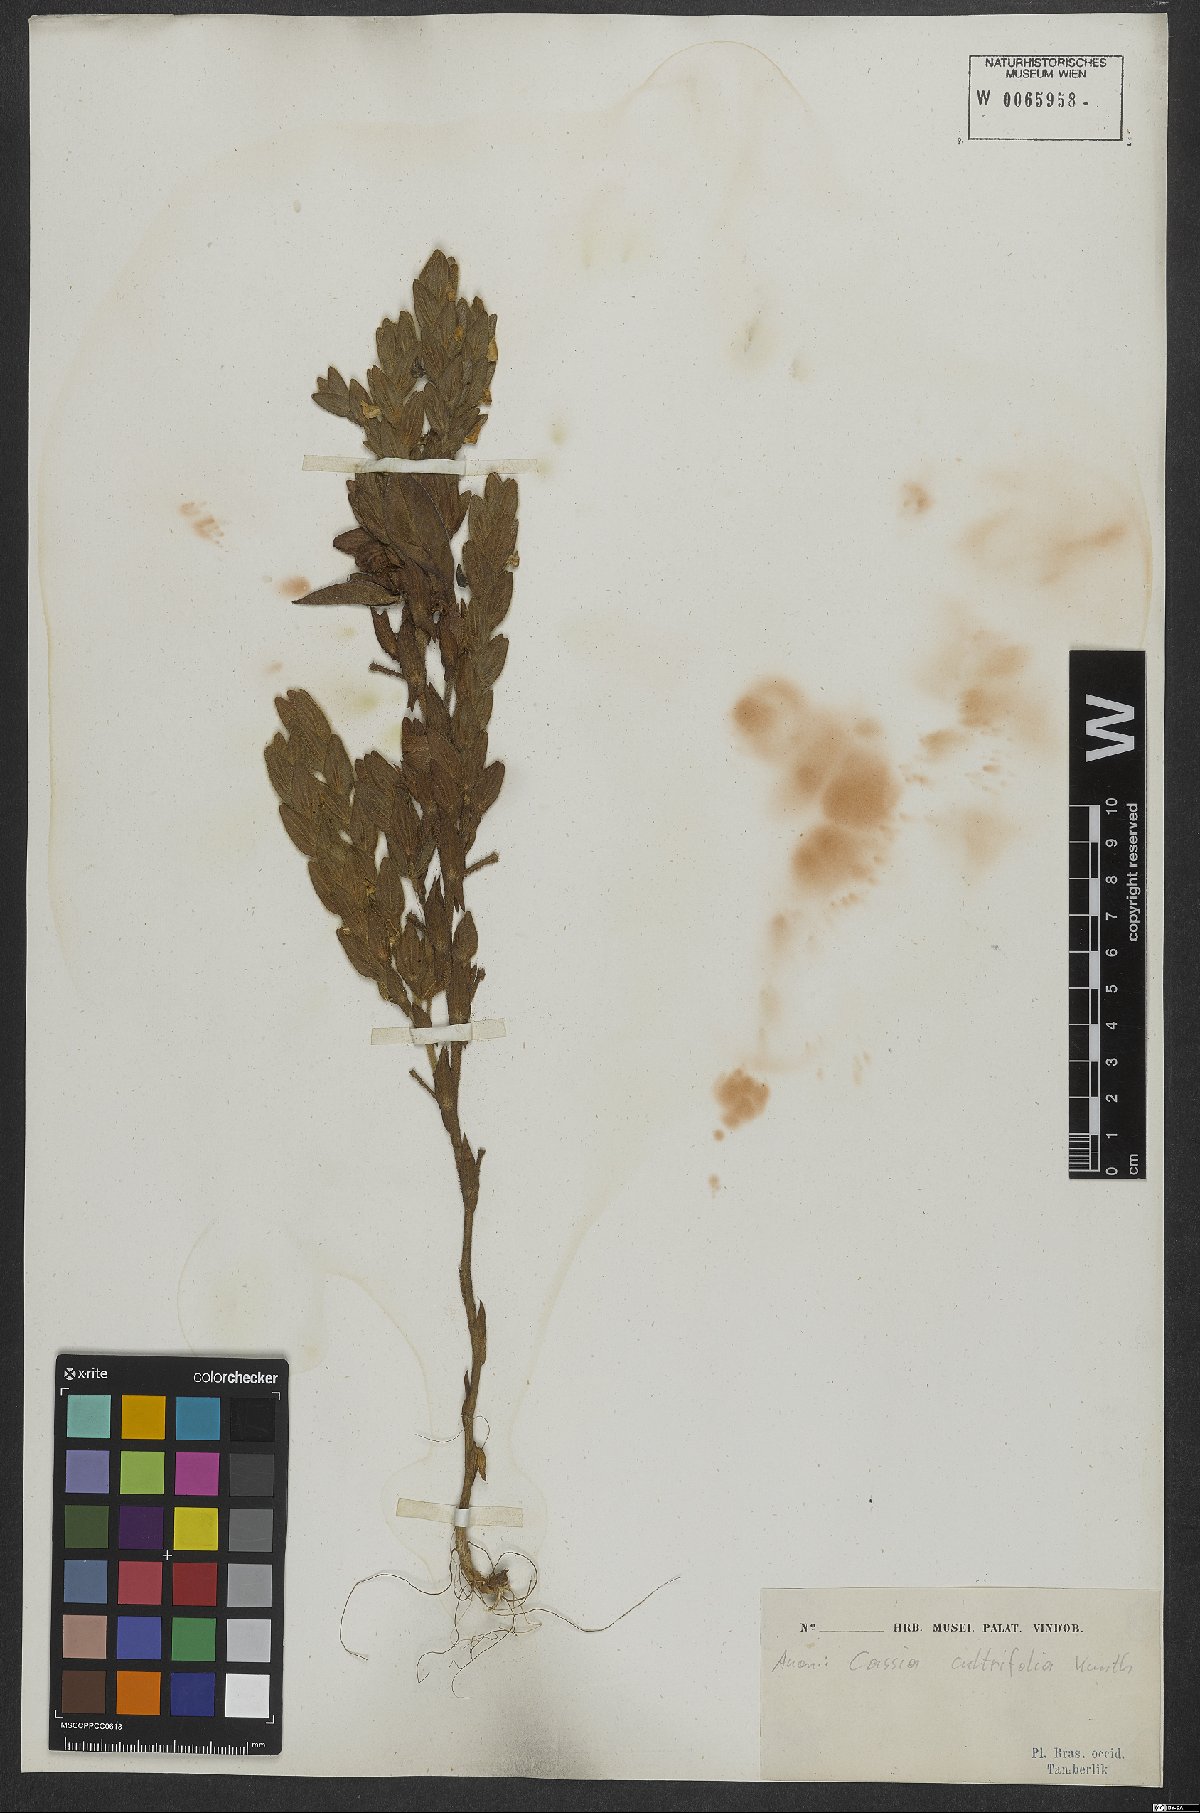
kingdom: Plantae
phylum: Tracheophyta
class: Magnoliopsida
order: Fabales
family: Fabaceae
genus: Chamaecrista
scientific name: Chamaecrista cultrifolia
